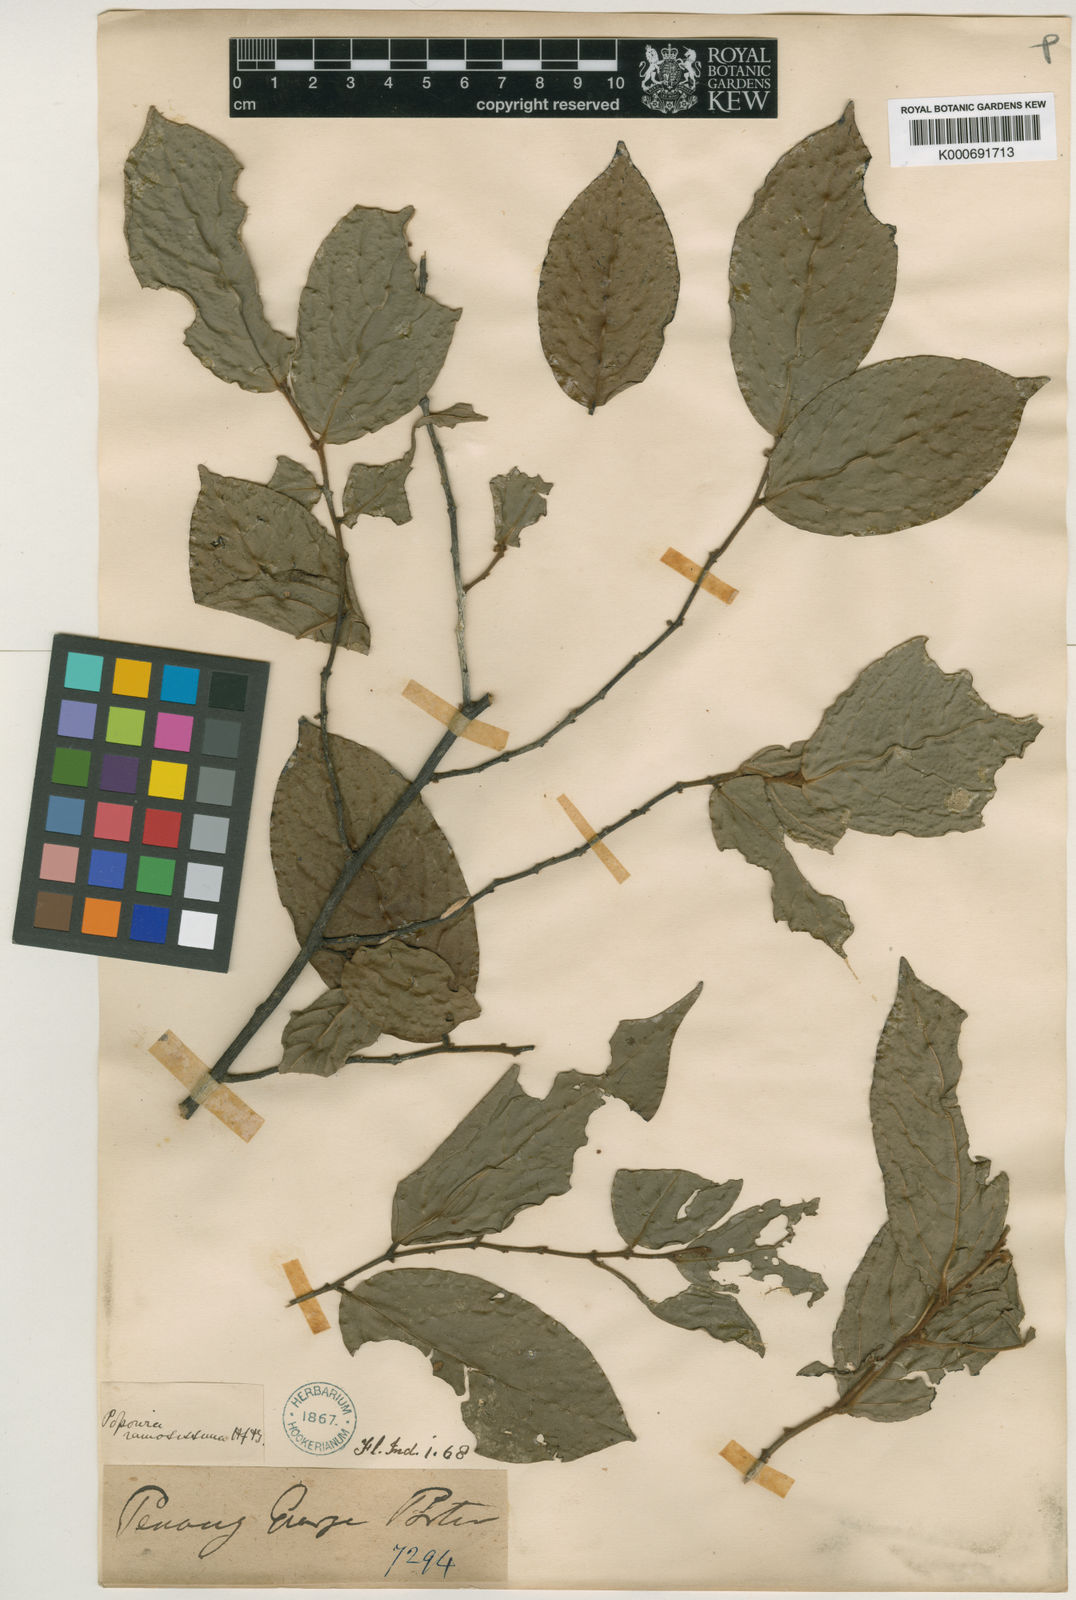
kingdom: Plantae
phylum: Tracheophyta
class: Magnoliopsida
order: Magnoliales
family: Annonaceae
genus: Popowia
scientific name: Popowia
